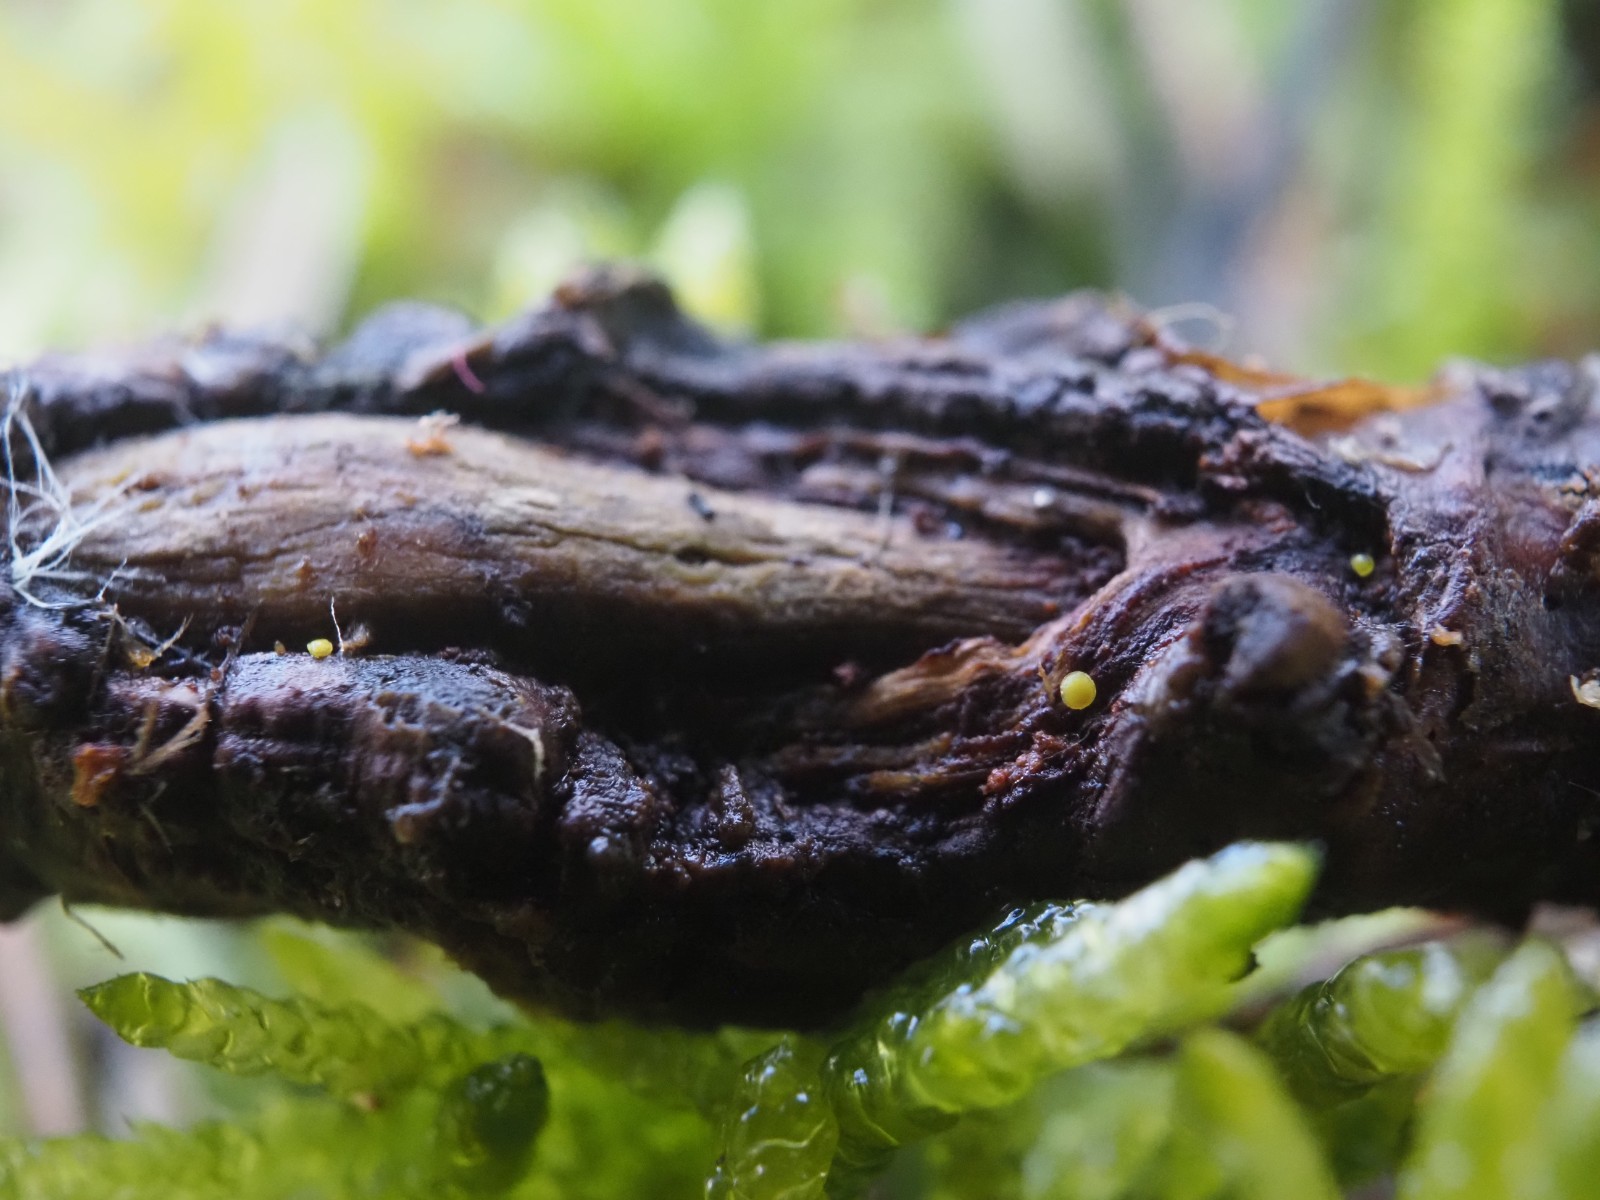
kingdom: Fungi
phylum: Ascomycota
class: Leotiomycetes
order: Helotiales
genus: Lemalis
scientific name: Lemalis aurea
